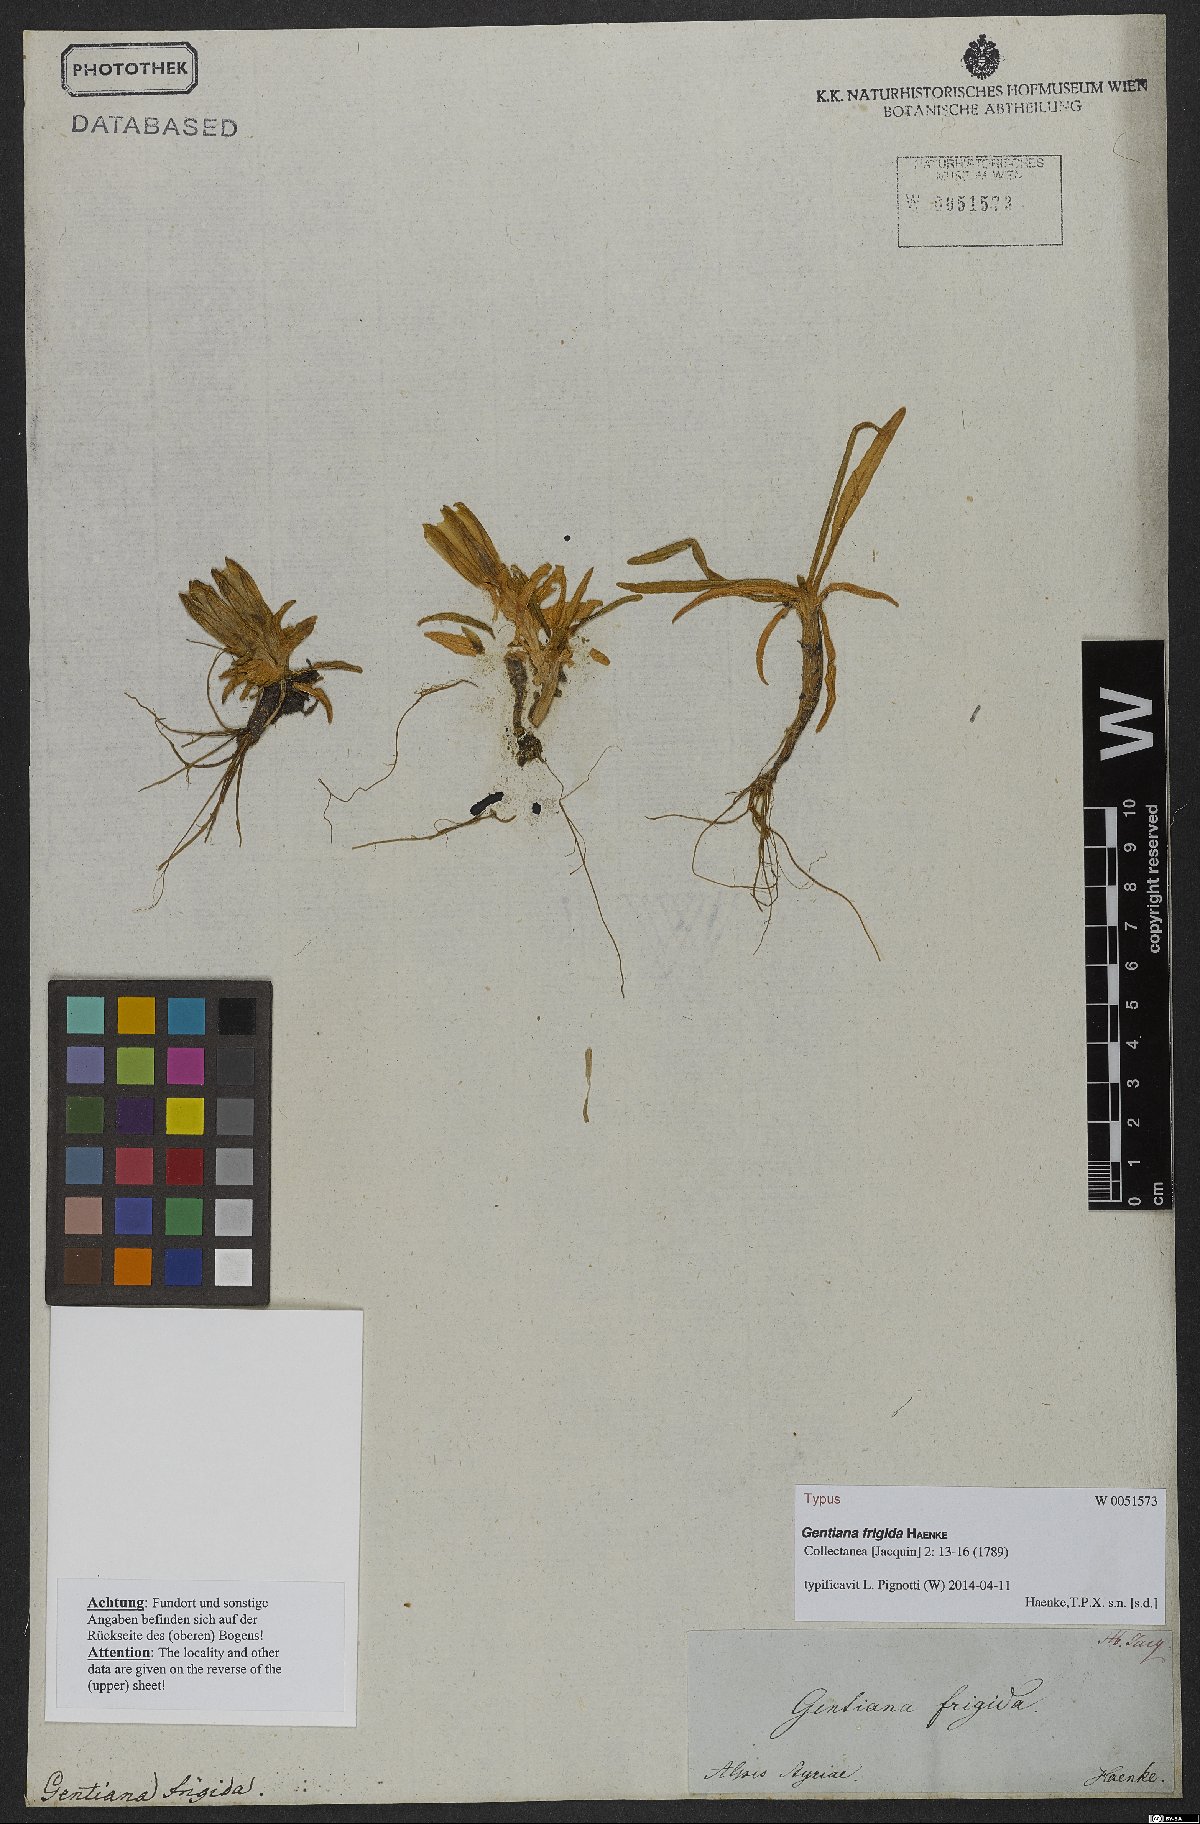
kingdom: Plantae
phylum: Tracheophyta
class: Magnoliopsida
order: Gentianales
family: Gentianaceae
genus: Gentiana
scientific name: Gentiana frigida
